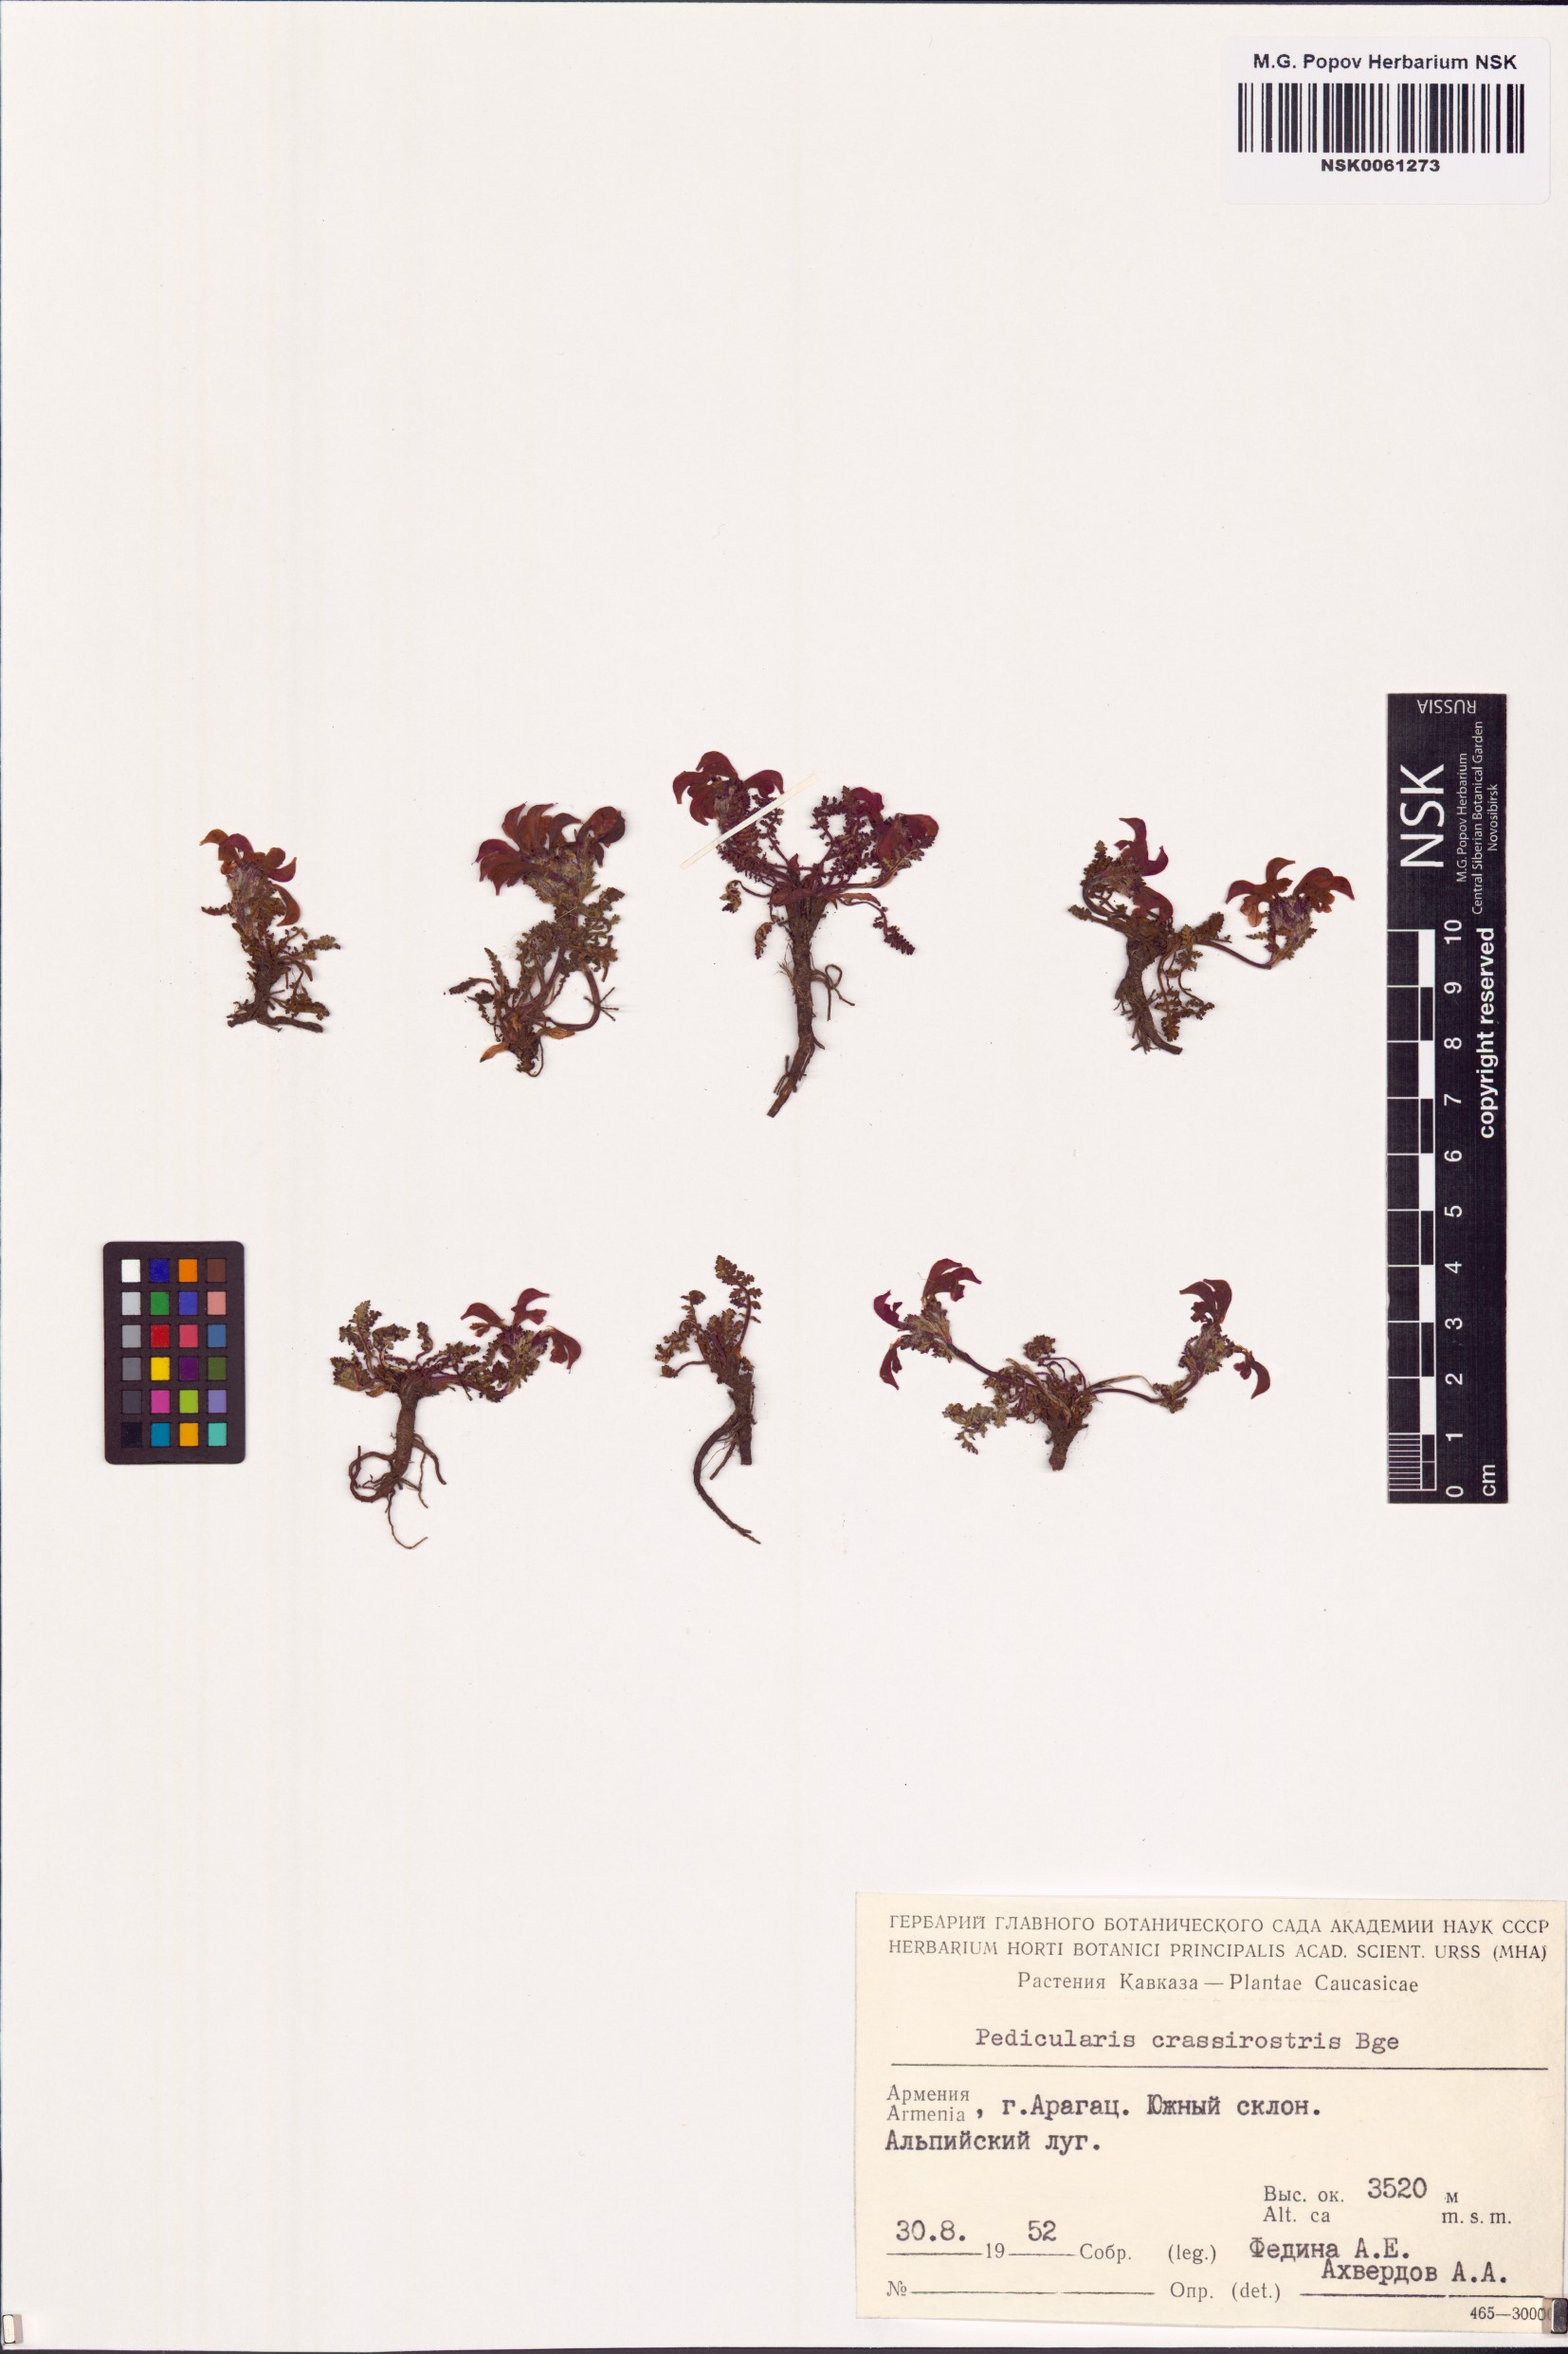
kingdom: Plantae
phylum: Tracheophyta
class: Magnoliopsida
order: Lamiales
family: Orobanchaceae
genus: Pedicularis
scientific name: Pedicularis crassirostris
